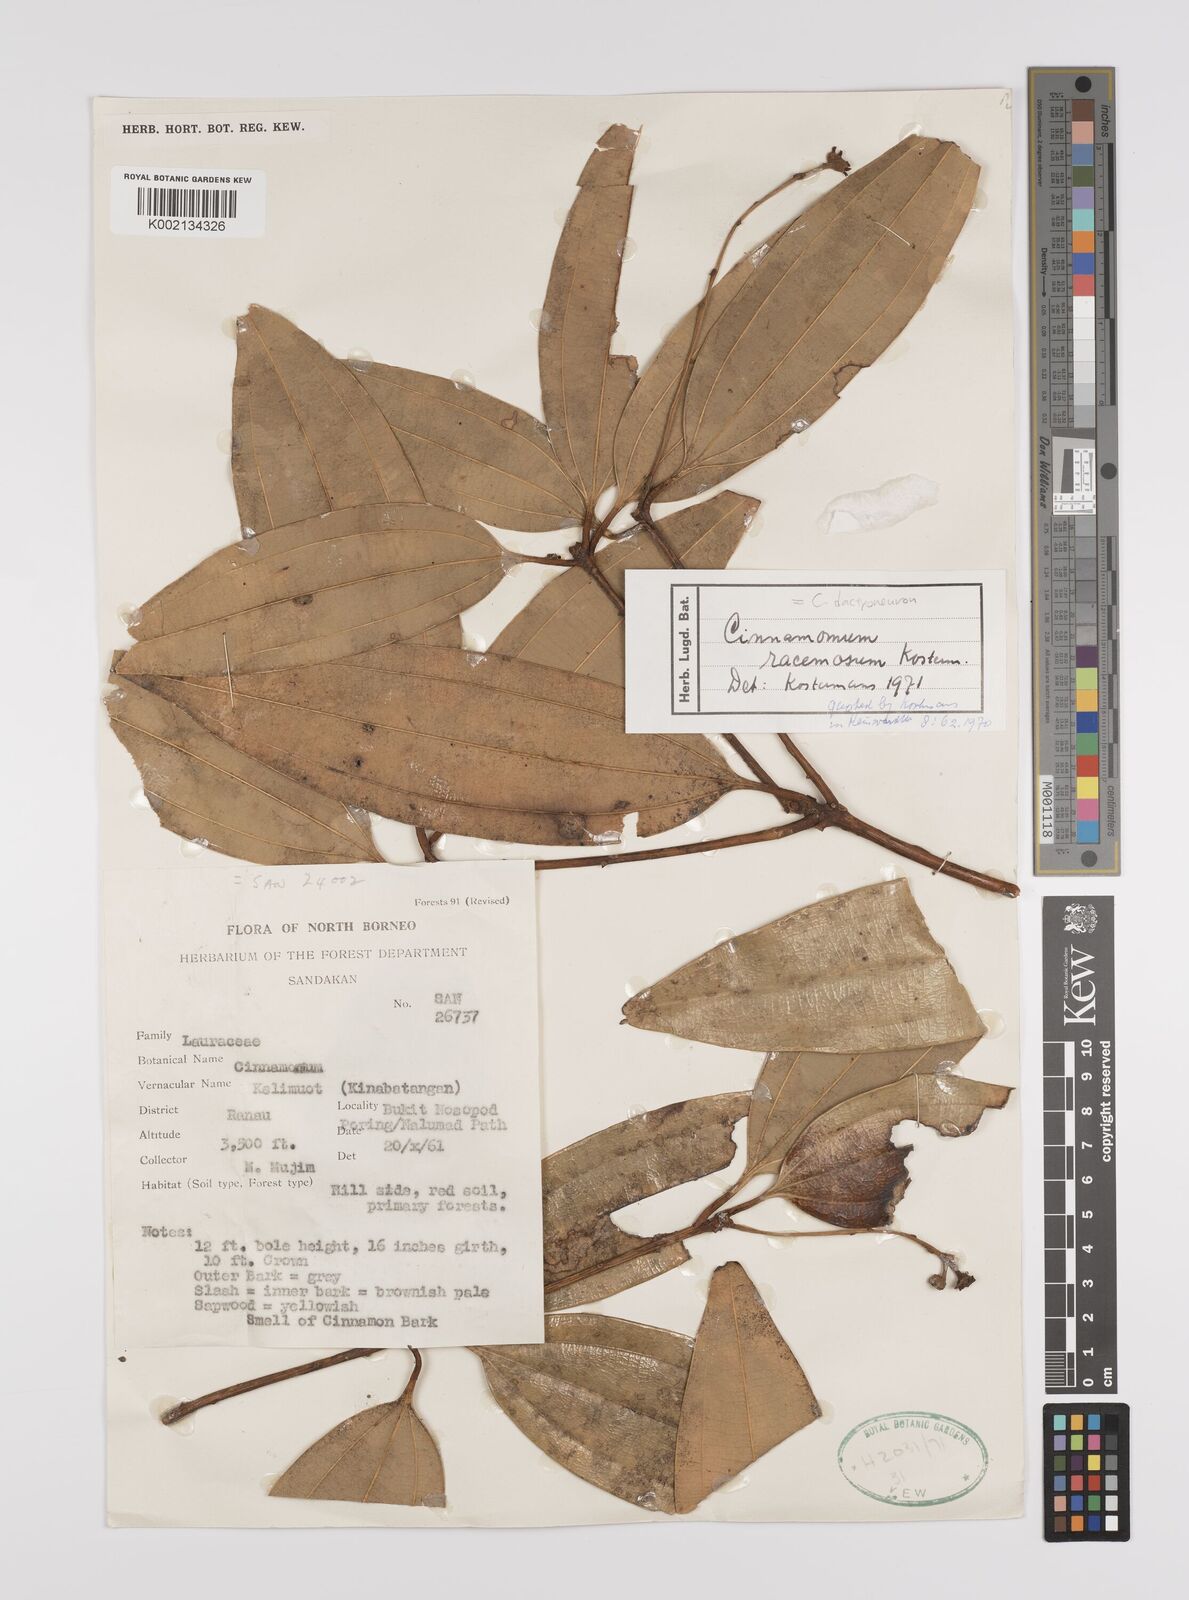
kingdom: Plantae
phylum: Tracheophyta
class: Magnoliopsida
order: Laurales
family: Lauraceae
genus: Cinnamomum
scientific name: Cinnamomum racemosum
